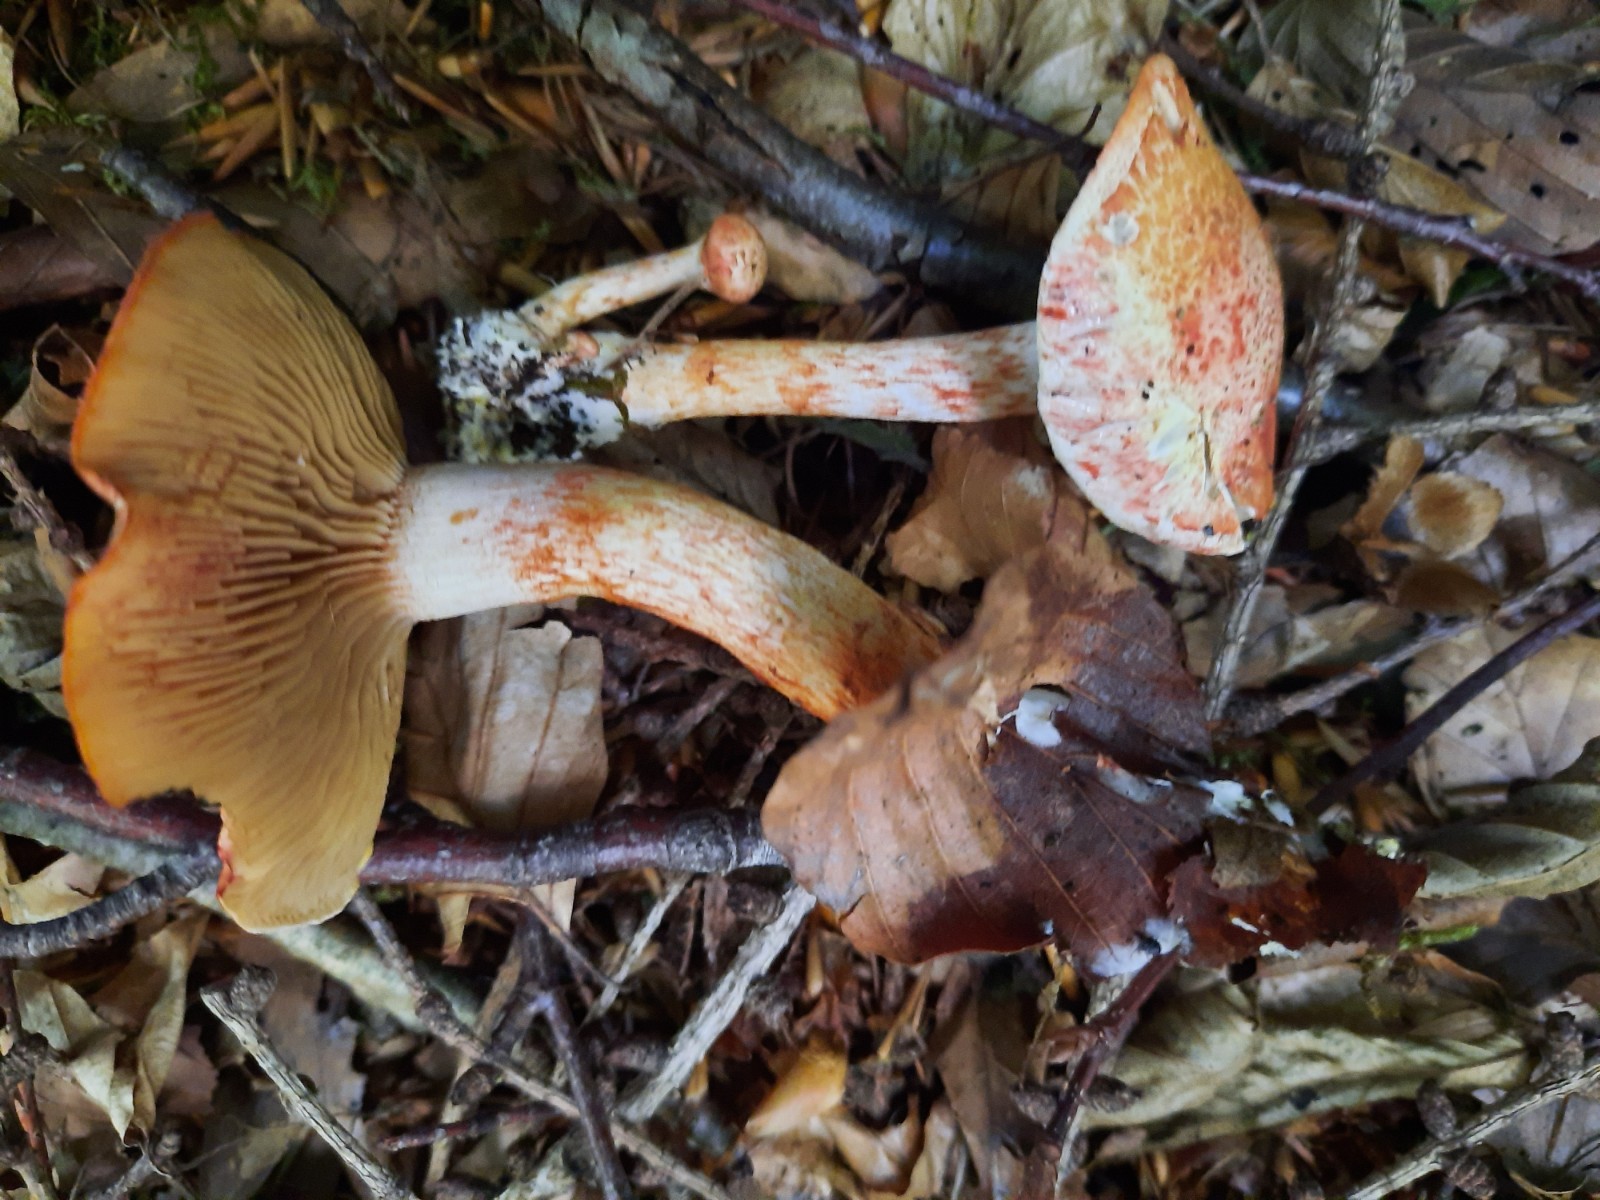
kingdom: Fungi
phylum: Basidiomycota
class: Agaricomycetes
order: Agaricales
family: Cortinariaceae
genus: Cortinarius
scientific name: Cortinarius bolaris
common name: cinnoberskællet slørhat
